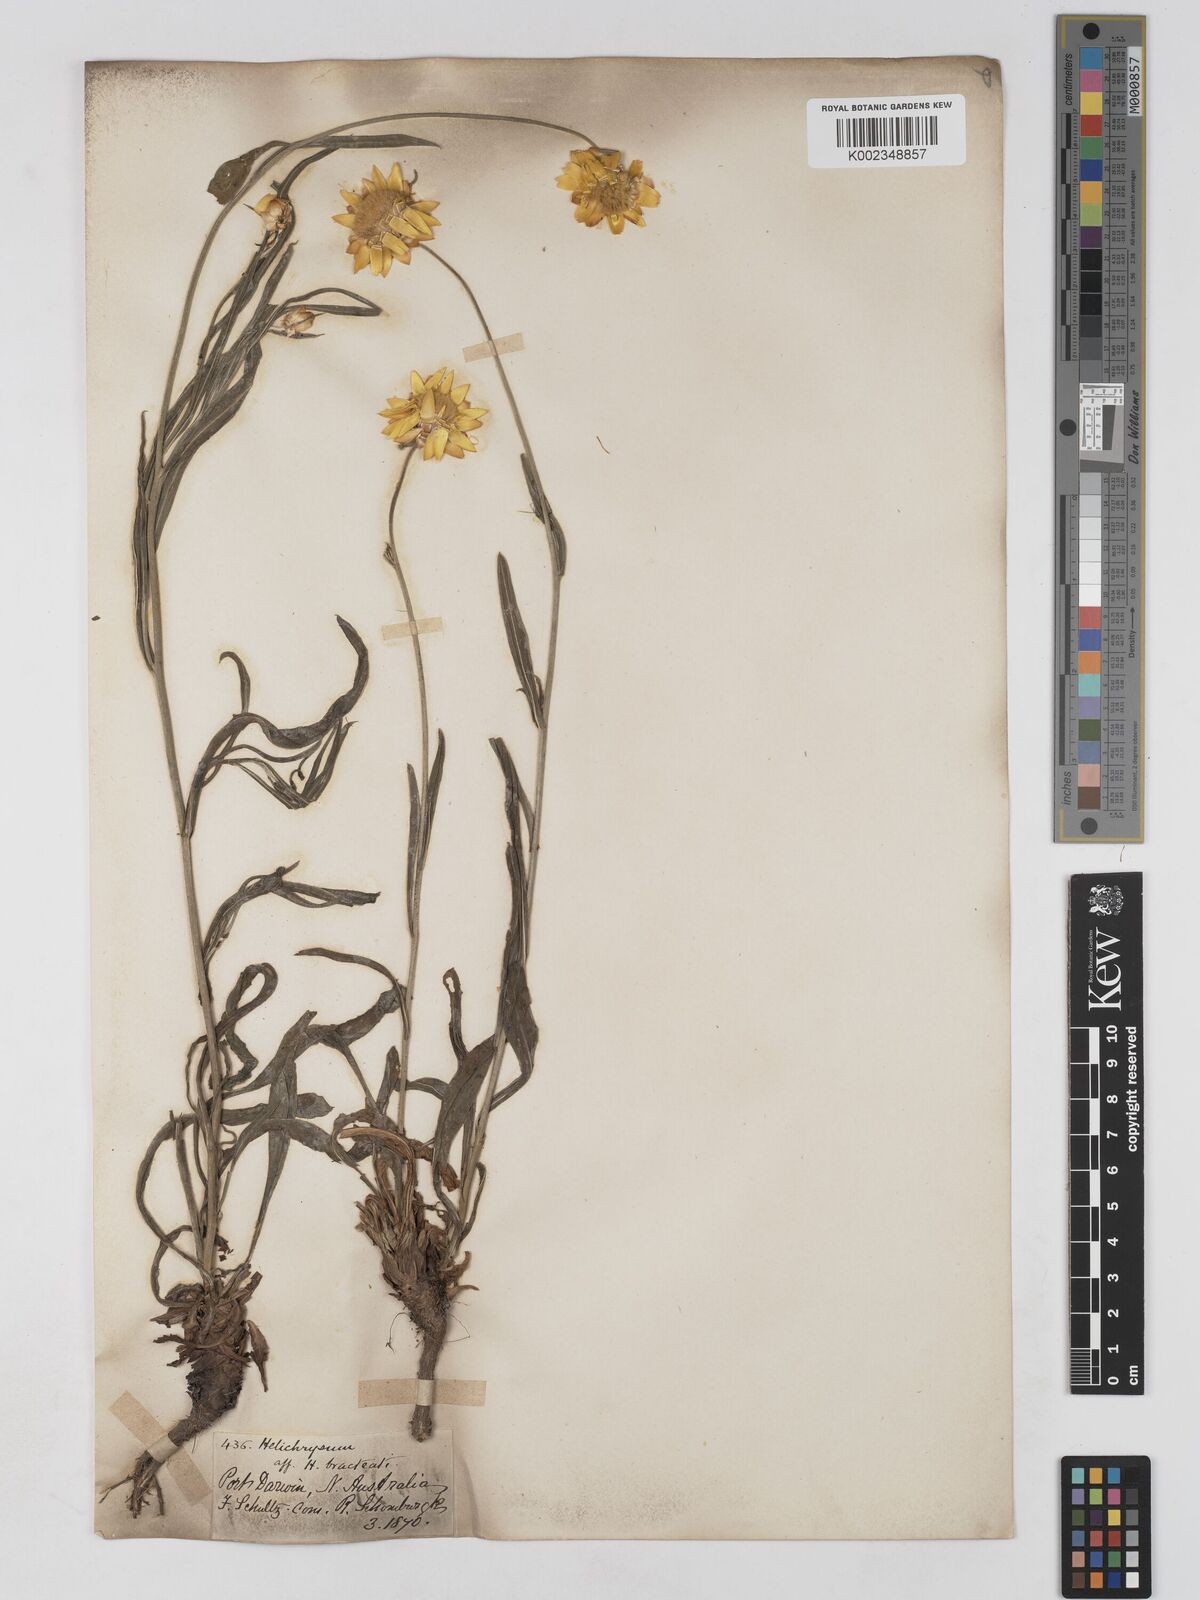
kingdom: Plantae
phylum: Tracheophyta
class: Magnoliopsida
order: Asterales
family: Asteraceae
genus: Xerochrysum
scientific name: Xerochrysum bracteatum
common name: Bracted strawflower
